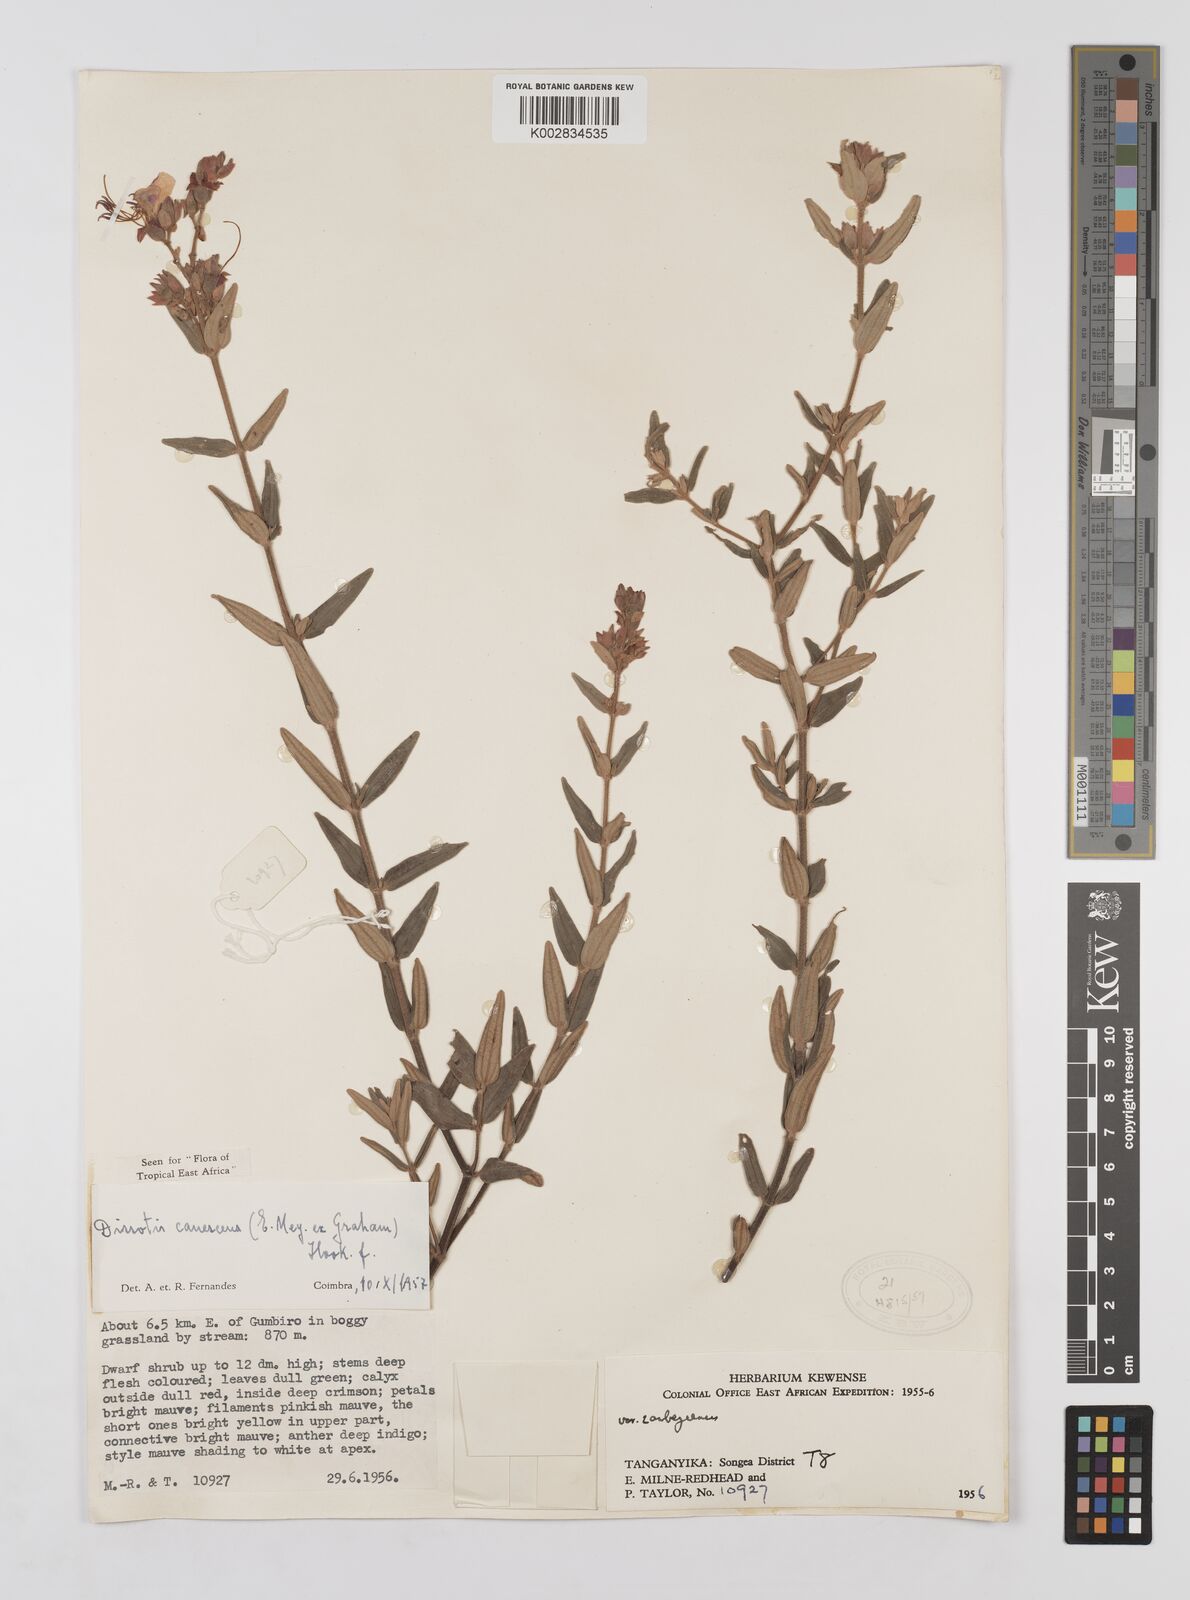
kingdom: Plantae
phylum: Tracheophyta
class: Magnoliopsida
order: Myrtales
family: Melastomataceae
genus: Argyrella
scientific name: Argyrella canescens
